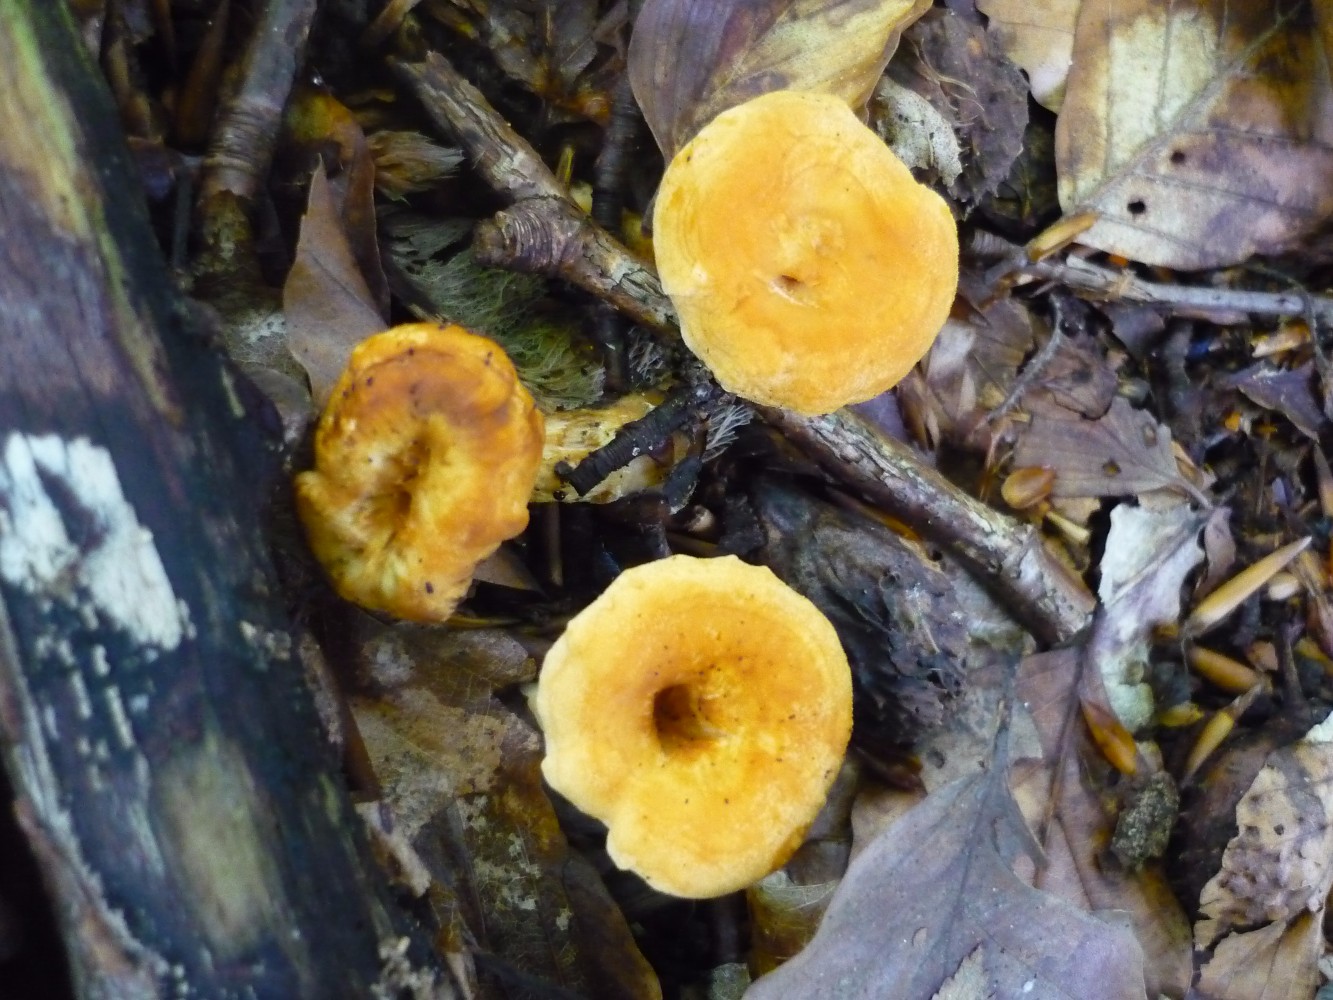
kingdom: Fungi
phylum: Basidiomycota
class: Agaricomycetes
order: Cantharellales
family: Hydnaceae
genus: Hydnum
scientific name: Hydnum umbilicatum
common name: navle-pigsvamp
